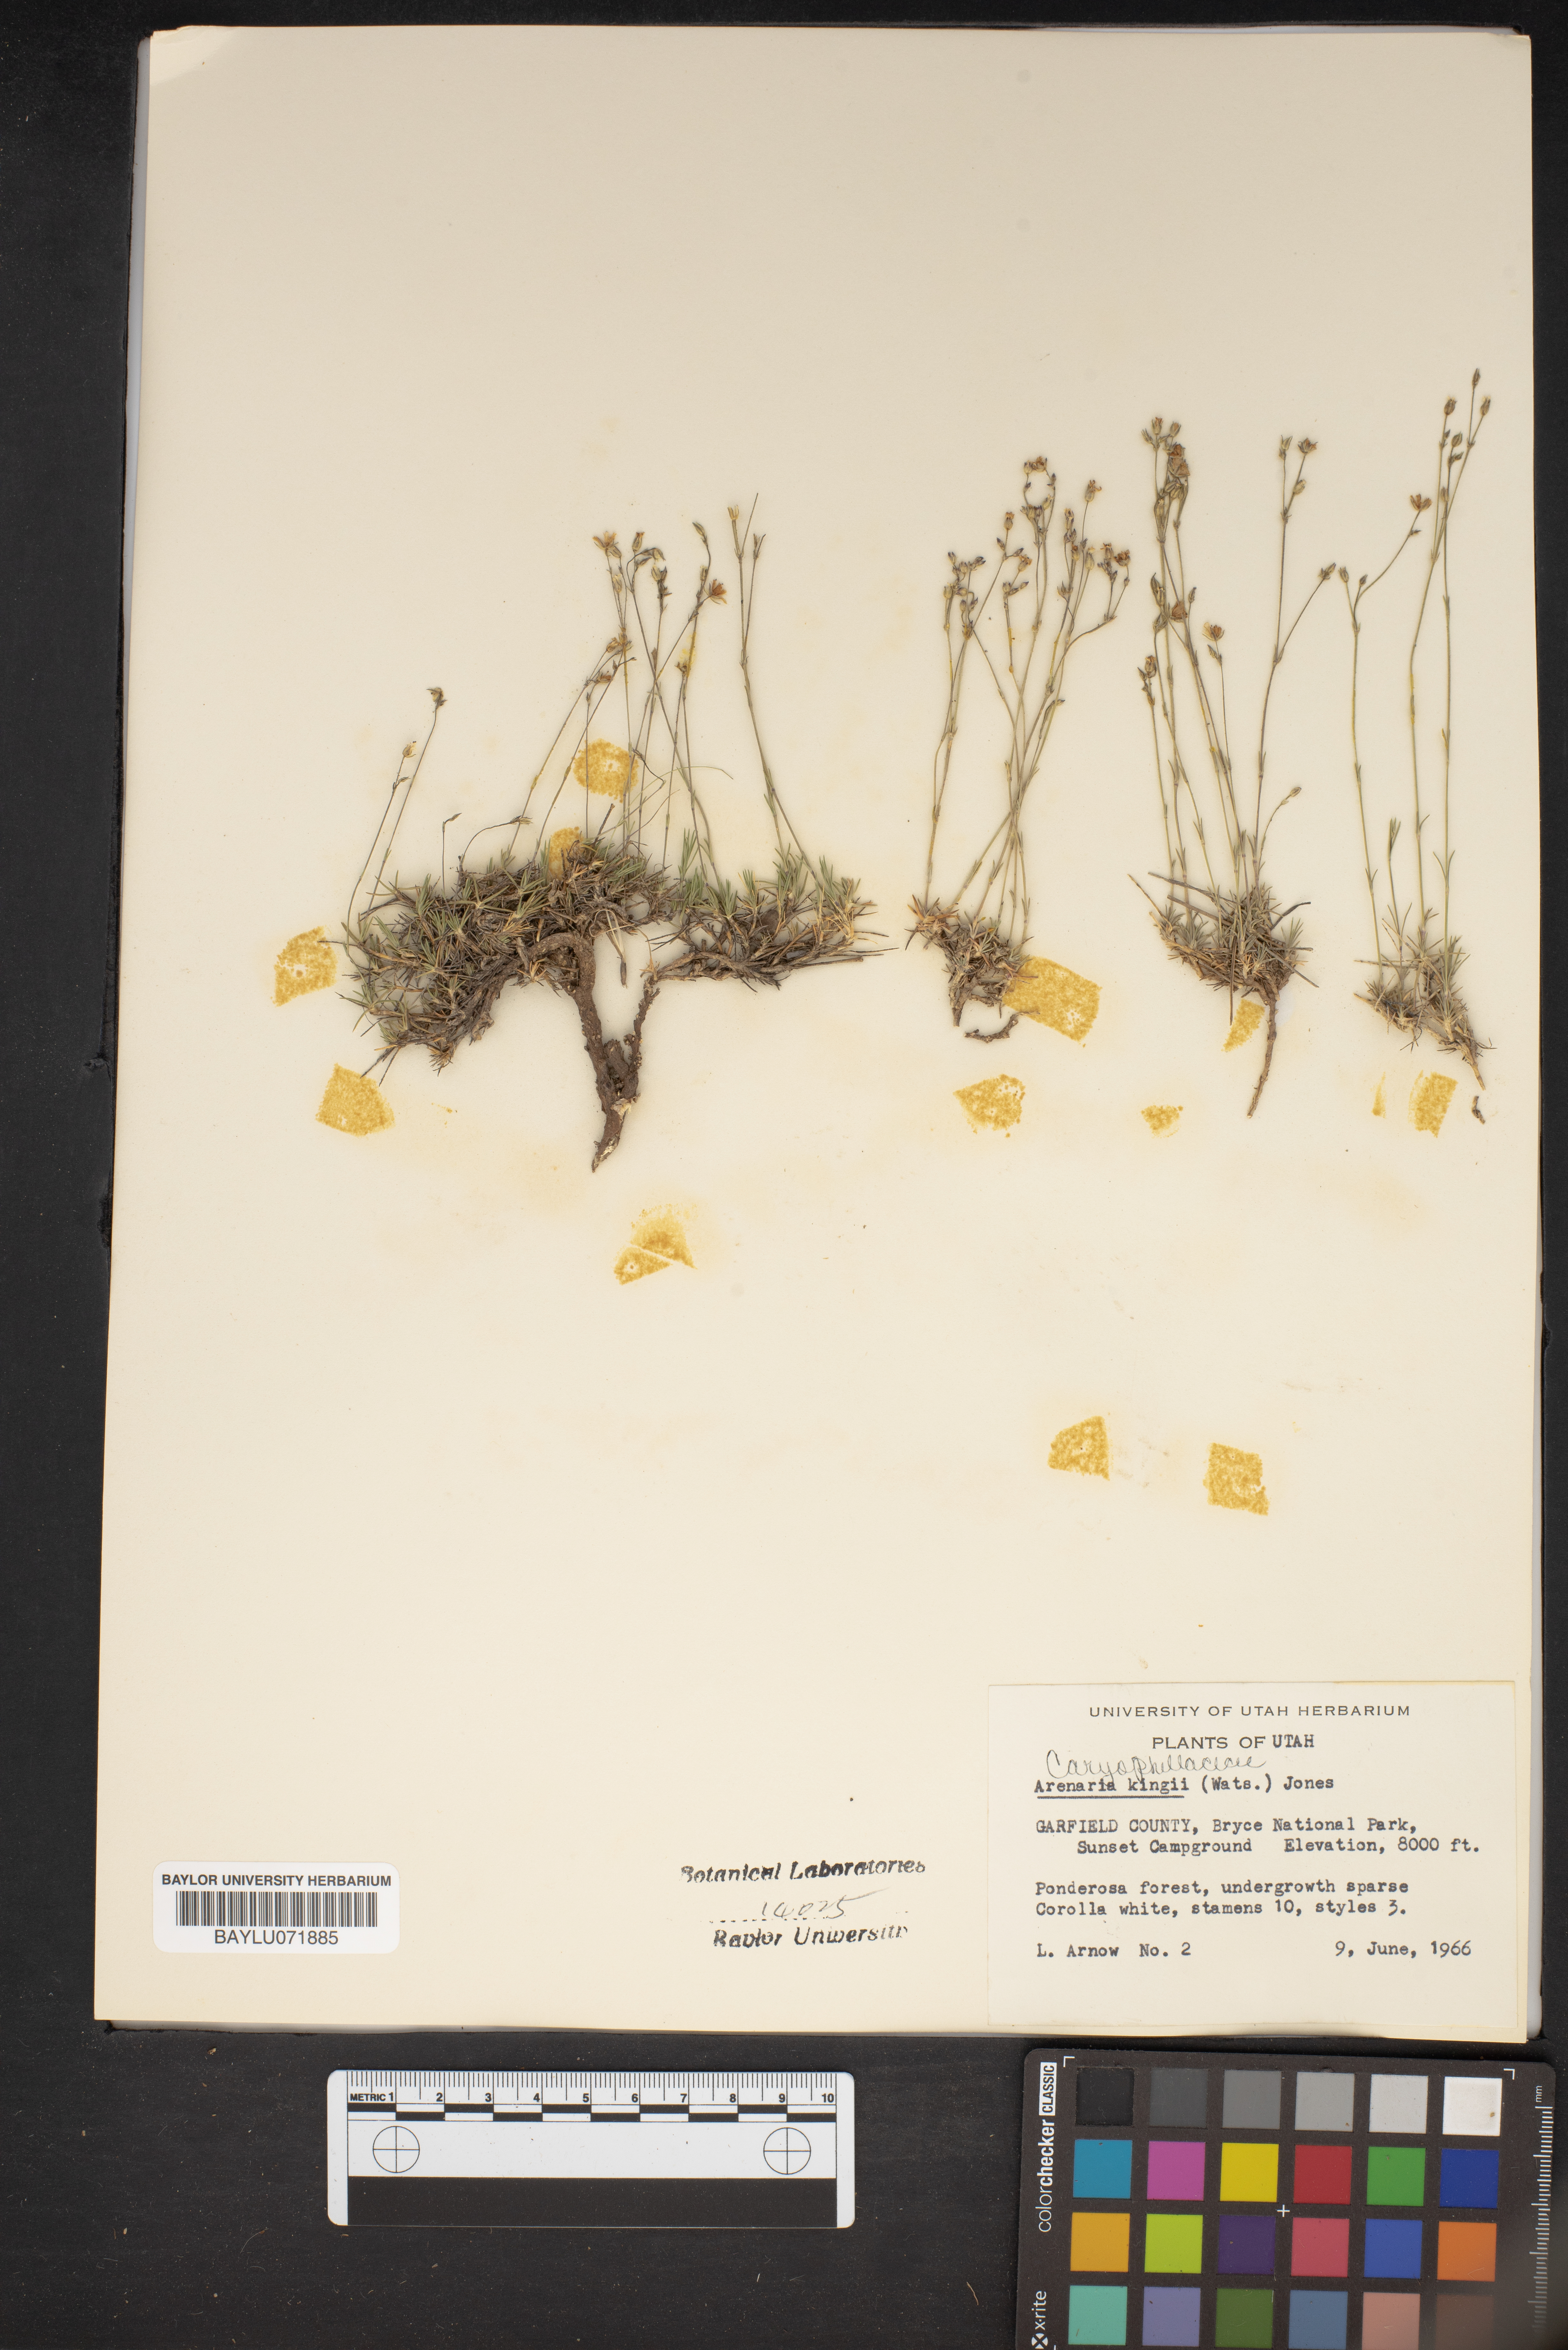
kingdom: Plantae
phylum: Tracheophyta
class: Magnoliopsida
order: Caryophyllales
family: Caryophyllaceae
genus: Eremogone
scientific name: Eremogone kingii
